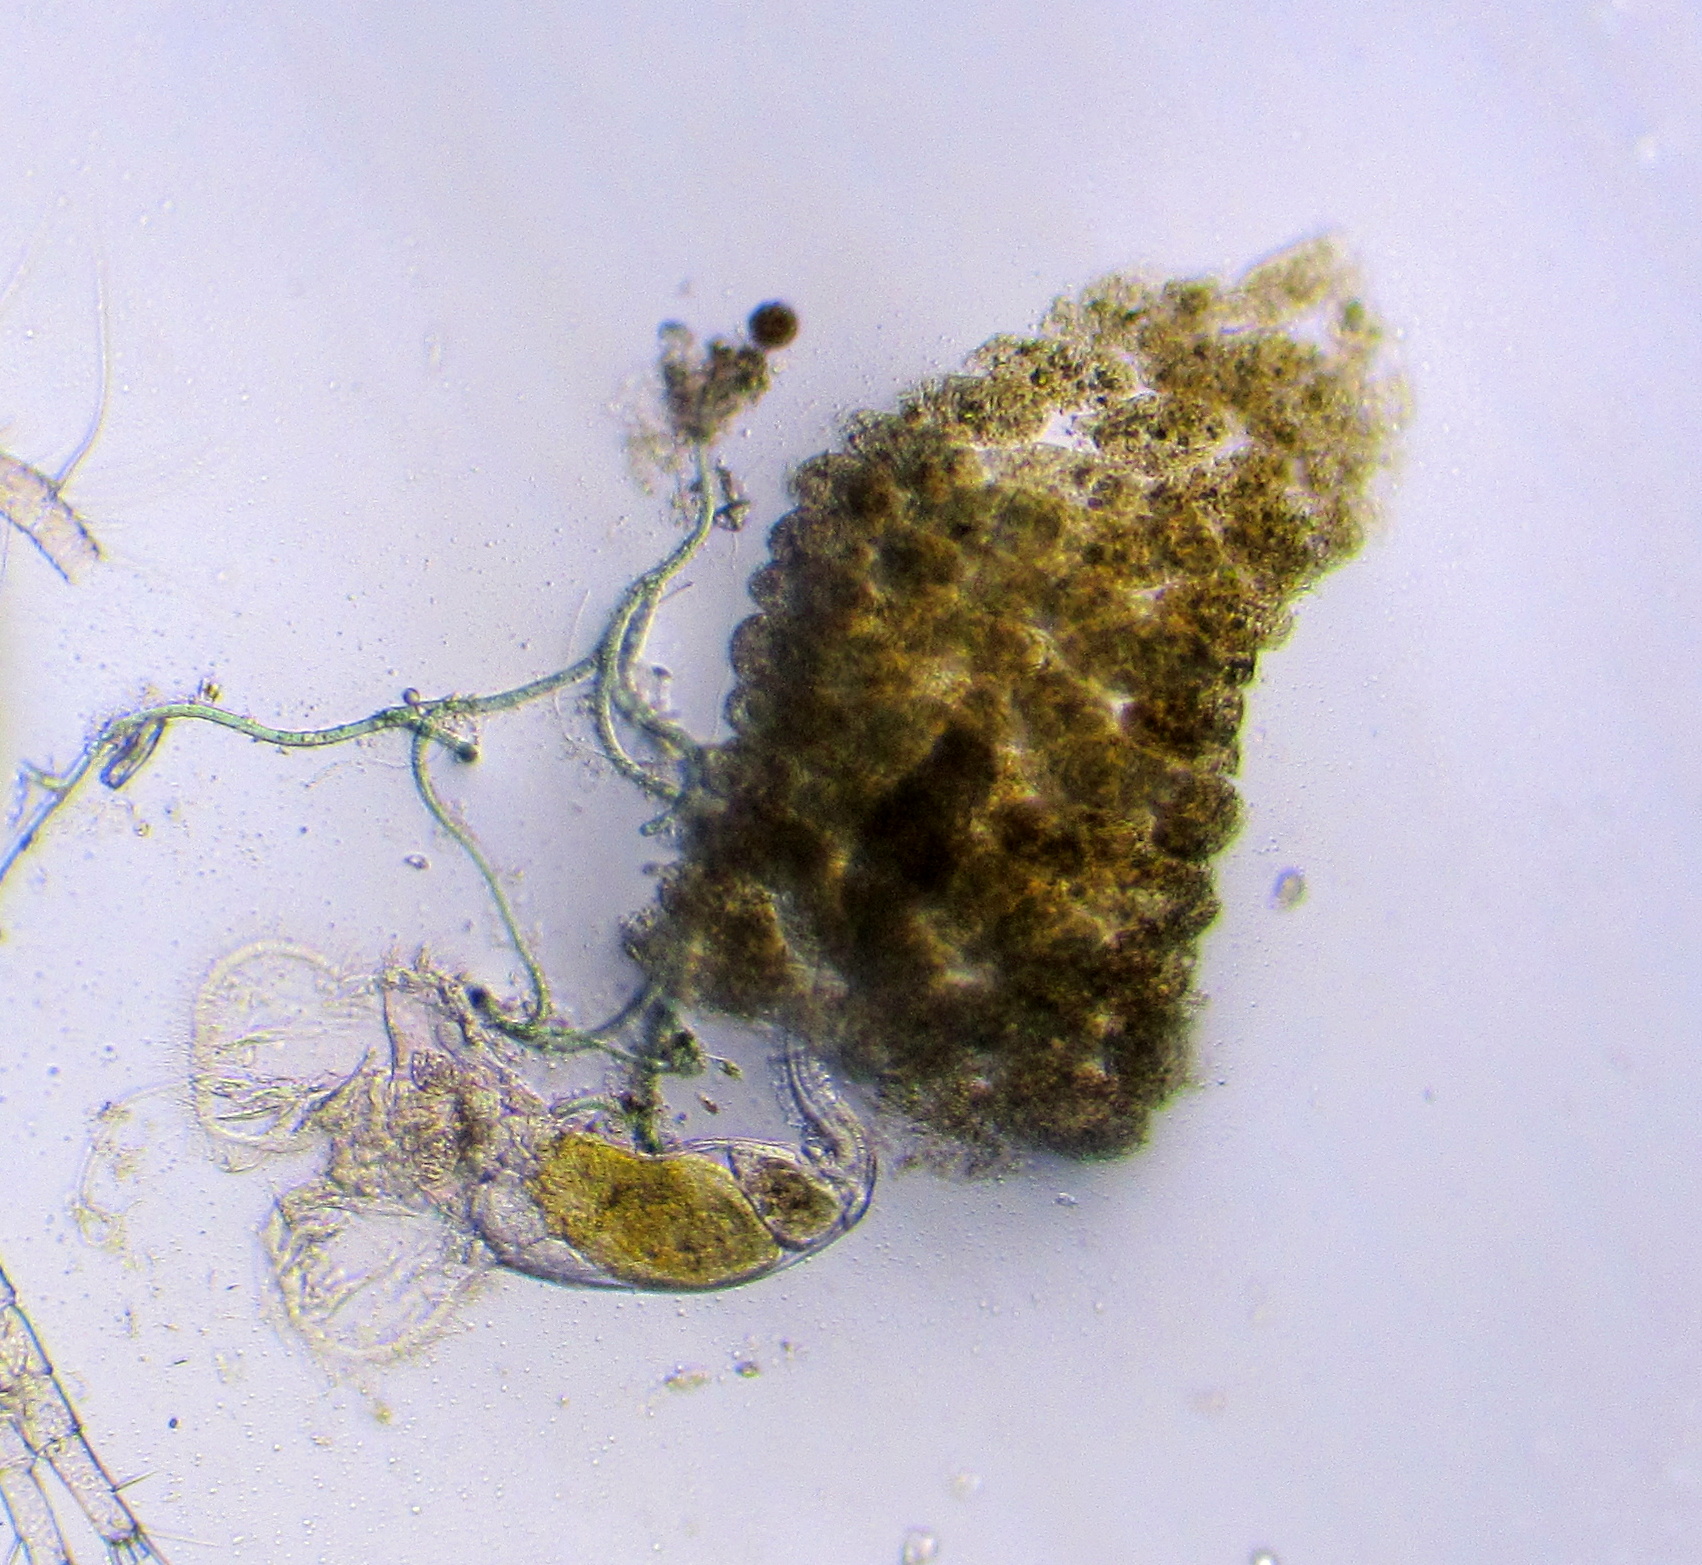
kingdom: Animalia
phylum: Rotifera
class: Eurotatoria
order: Flosculariaceae
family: Flosculariidae
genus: Ptygura
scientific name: Ptygura pilula
